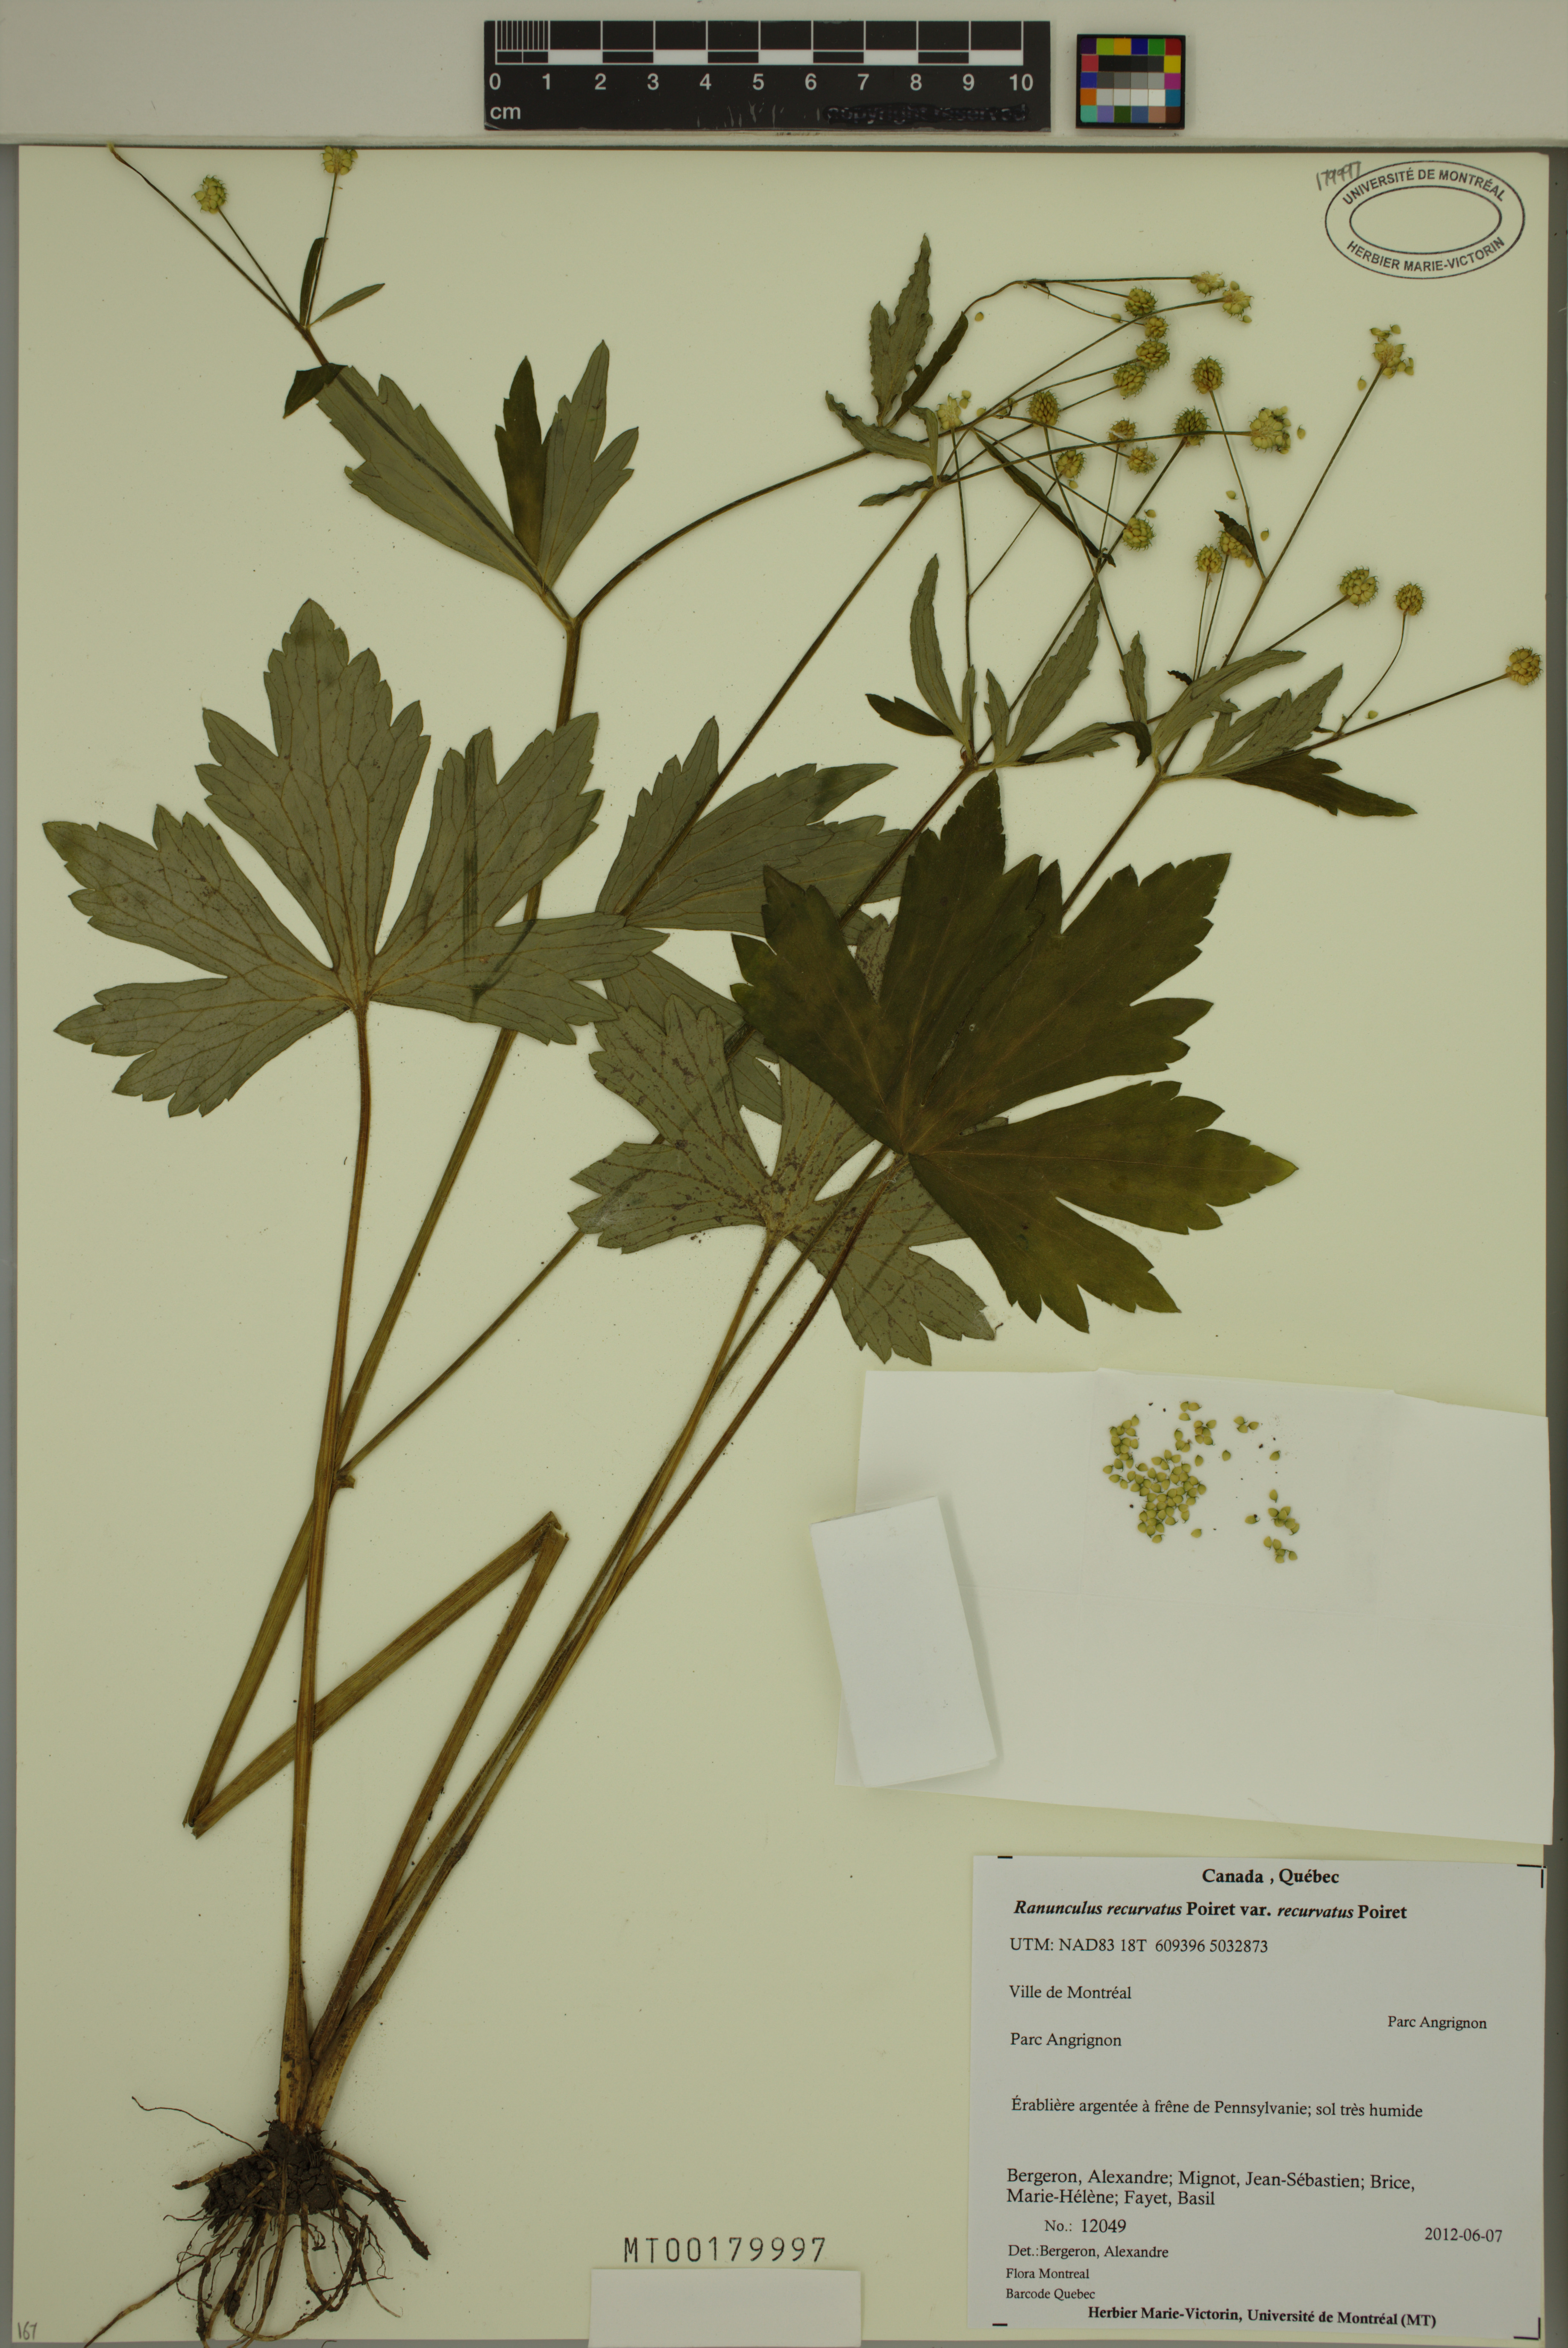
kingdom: Plantae
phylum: Tracheophyta
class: Magnoliopsida
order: Ranunculales
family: Ranunculaceae
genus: Ranunculus
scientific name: Ranunculus recurvatus
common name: Blisterwort
